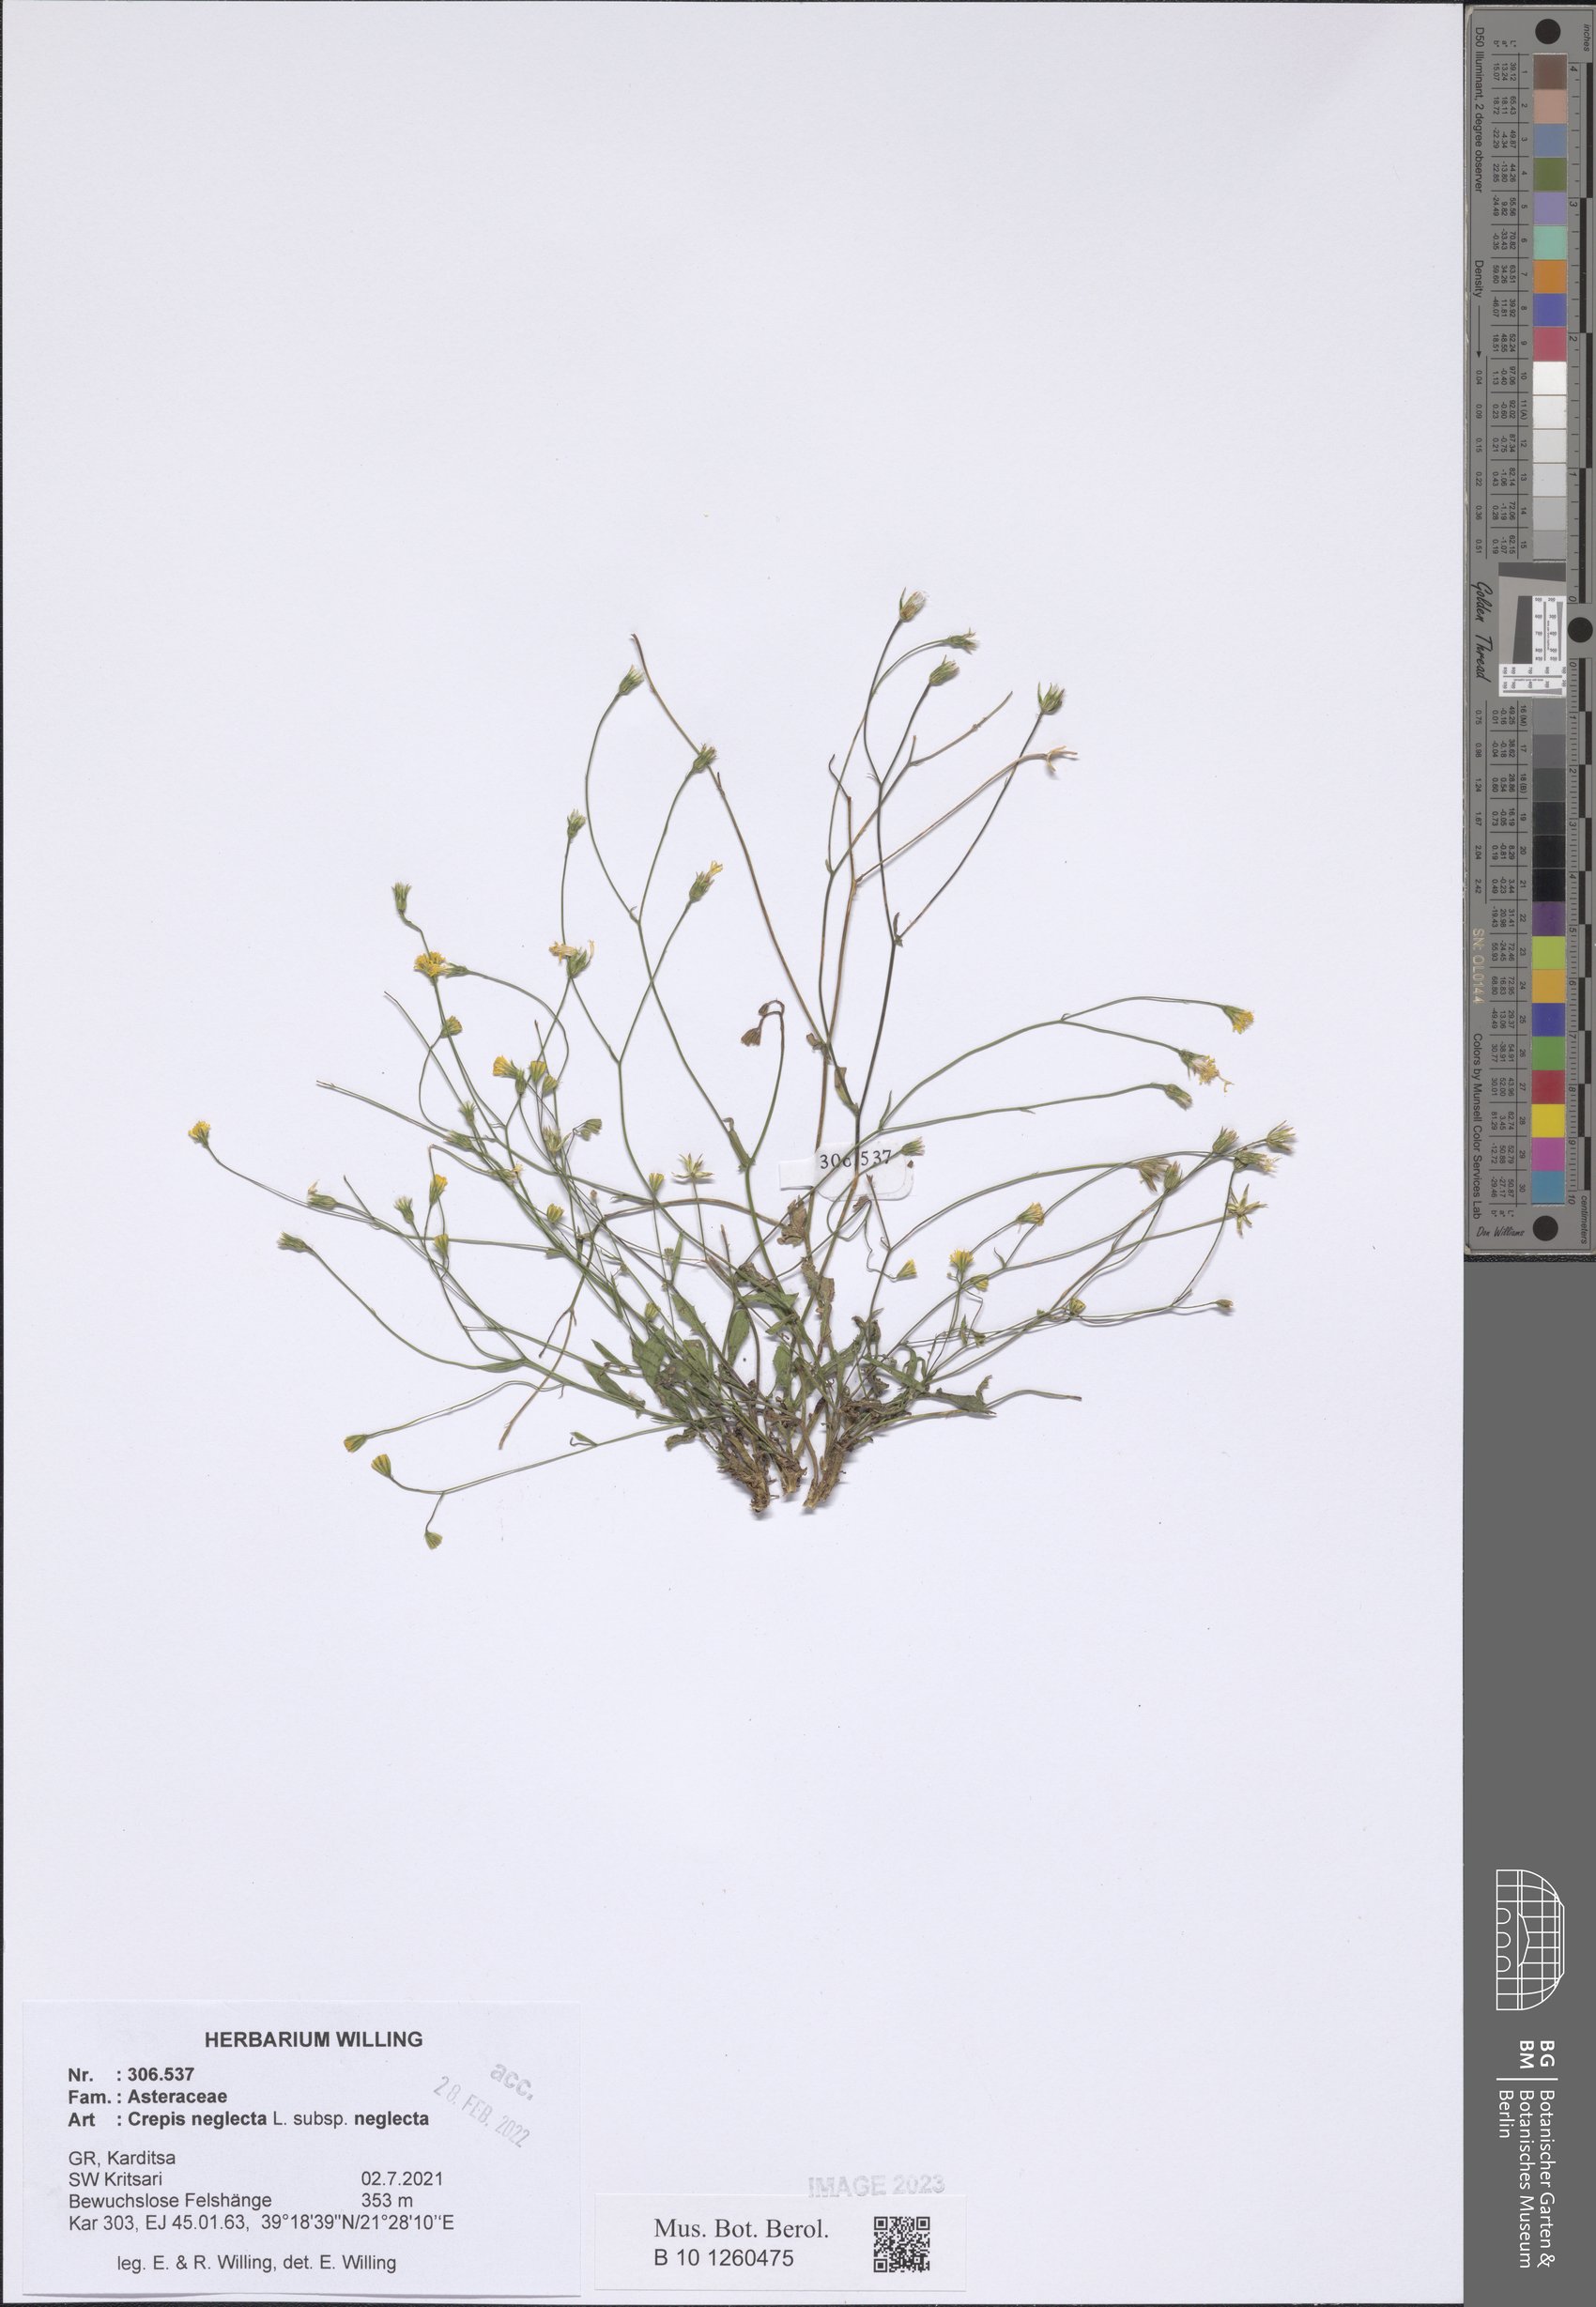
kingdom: Plantae
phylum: Tracheophyta
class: Magnoliopsida
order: Asterales
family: Asteraceae
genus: Crepis
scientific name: Crepis neglecta
